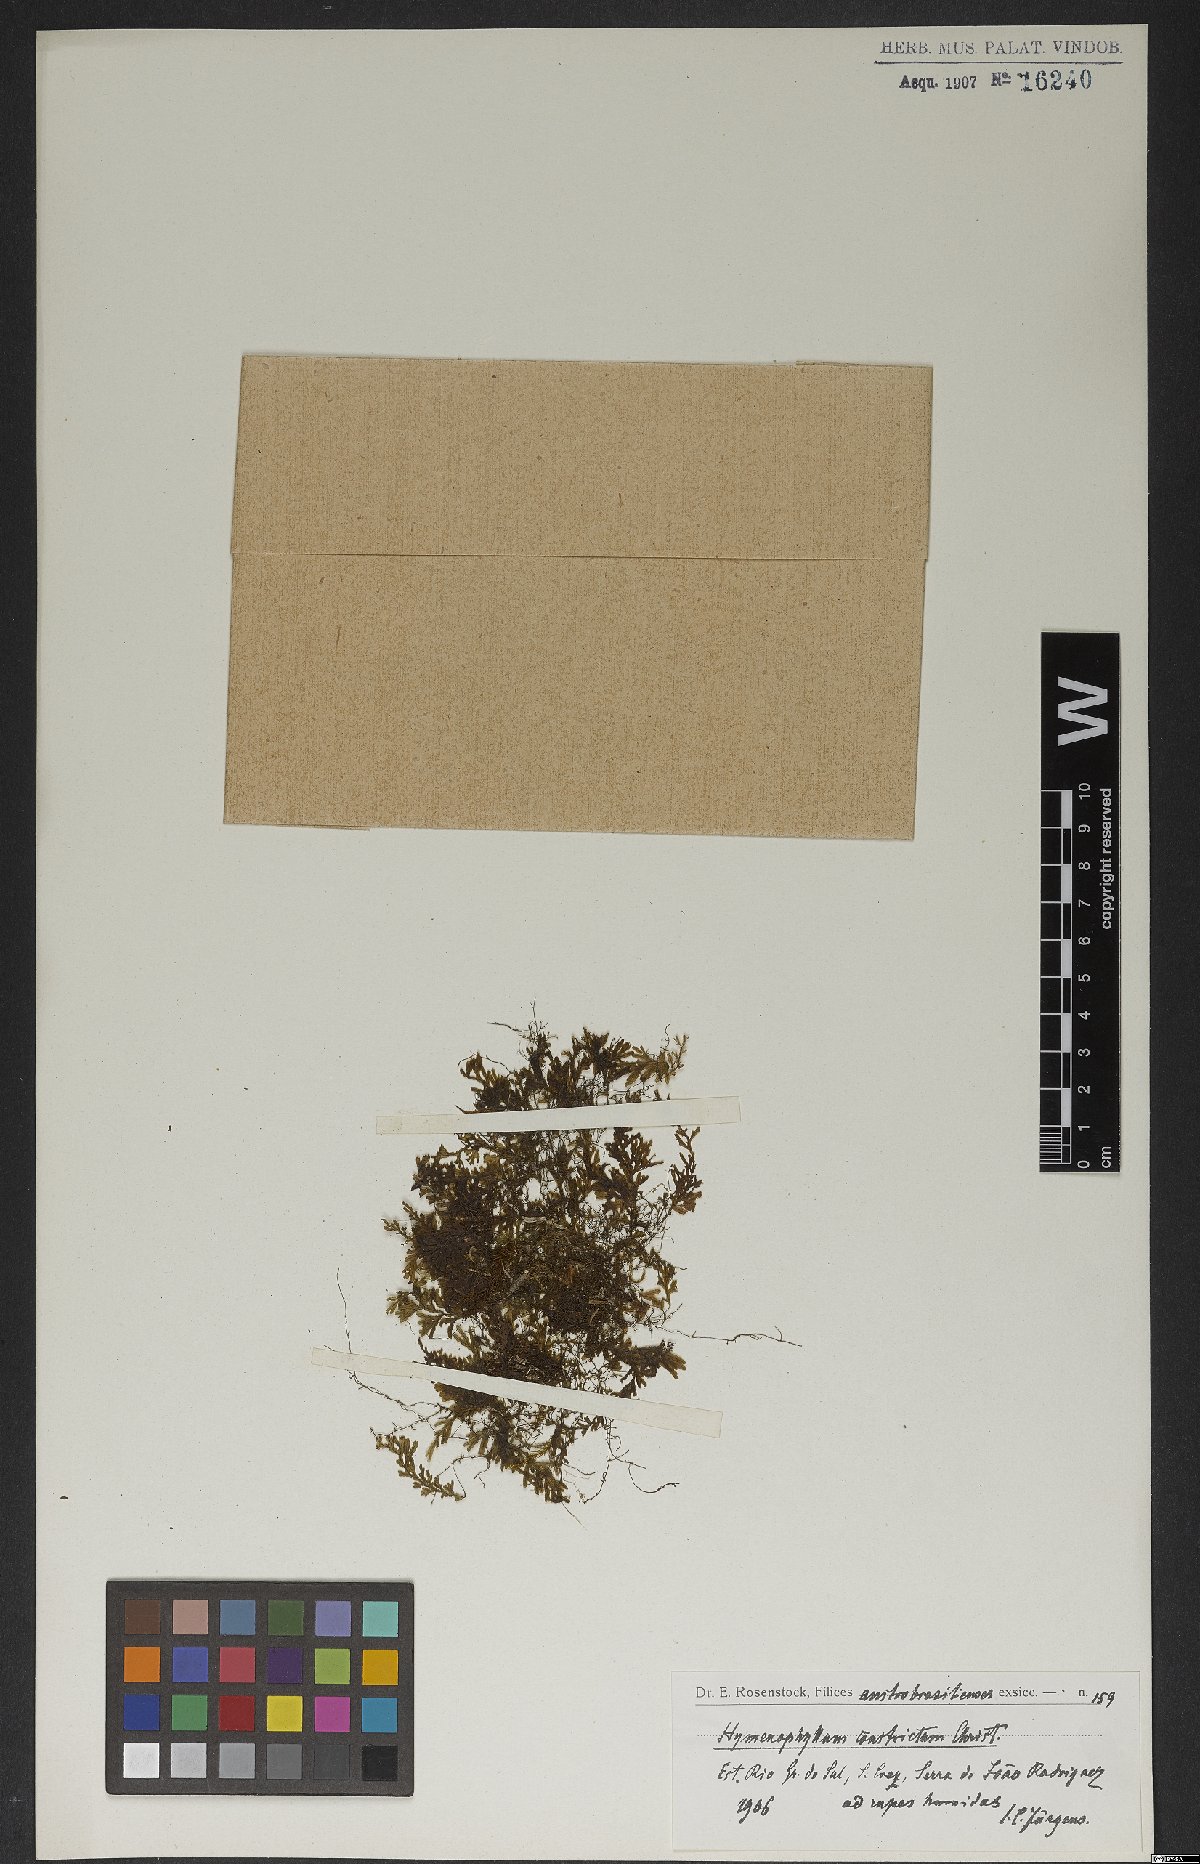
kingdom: Plantae
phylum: Tracheophyta
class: Polypodiopsida
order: Hymenophyllales
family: Hymenophyllaceae
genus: Hymenophyllum
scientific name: Hymenophyllum crispum
